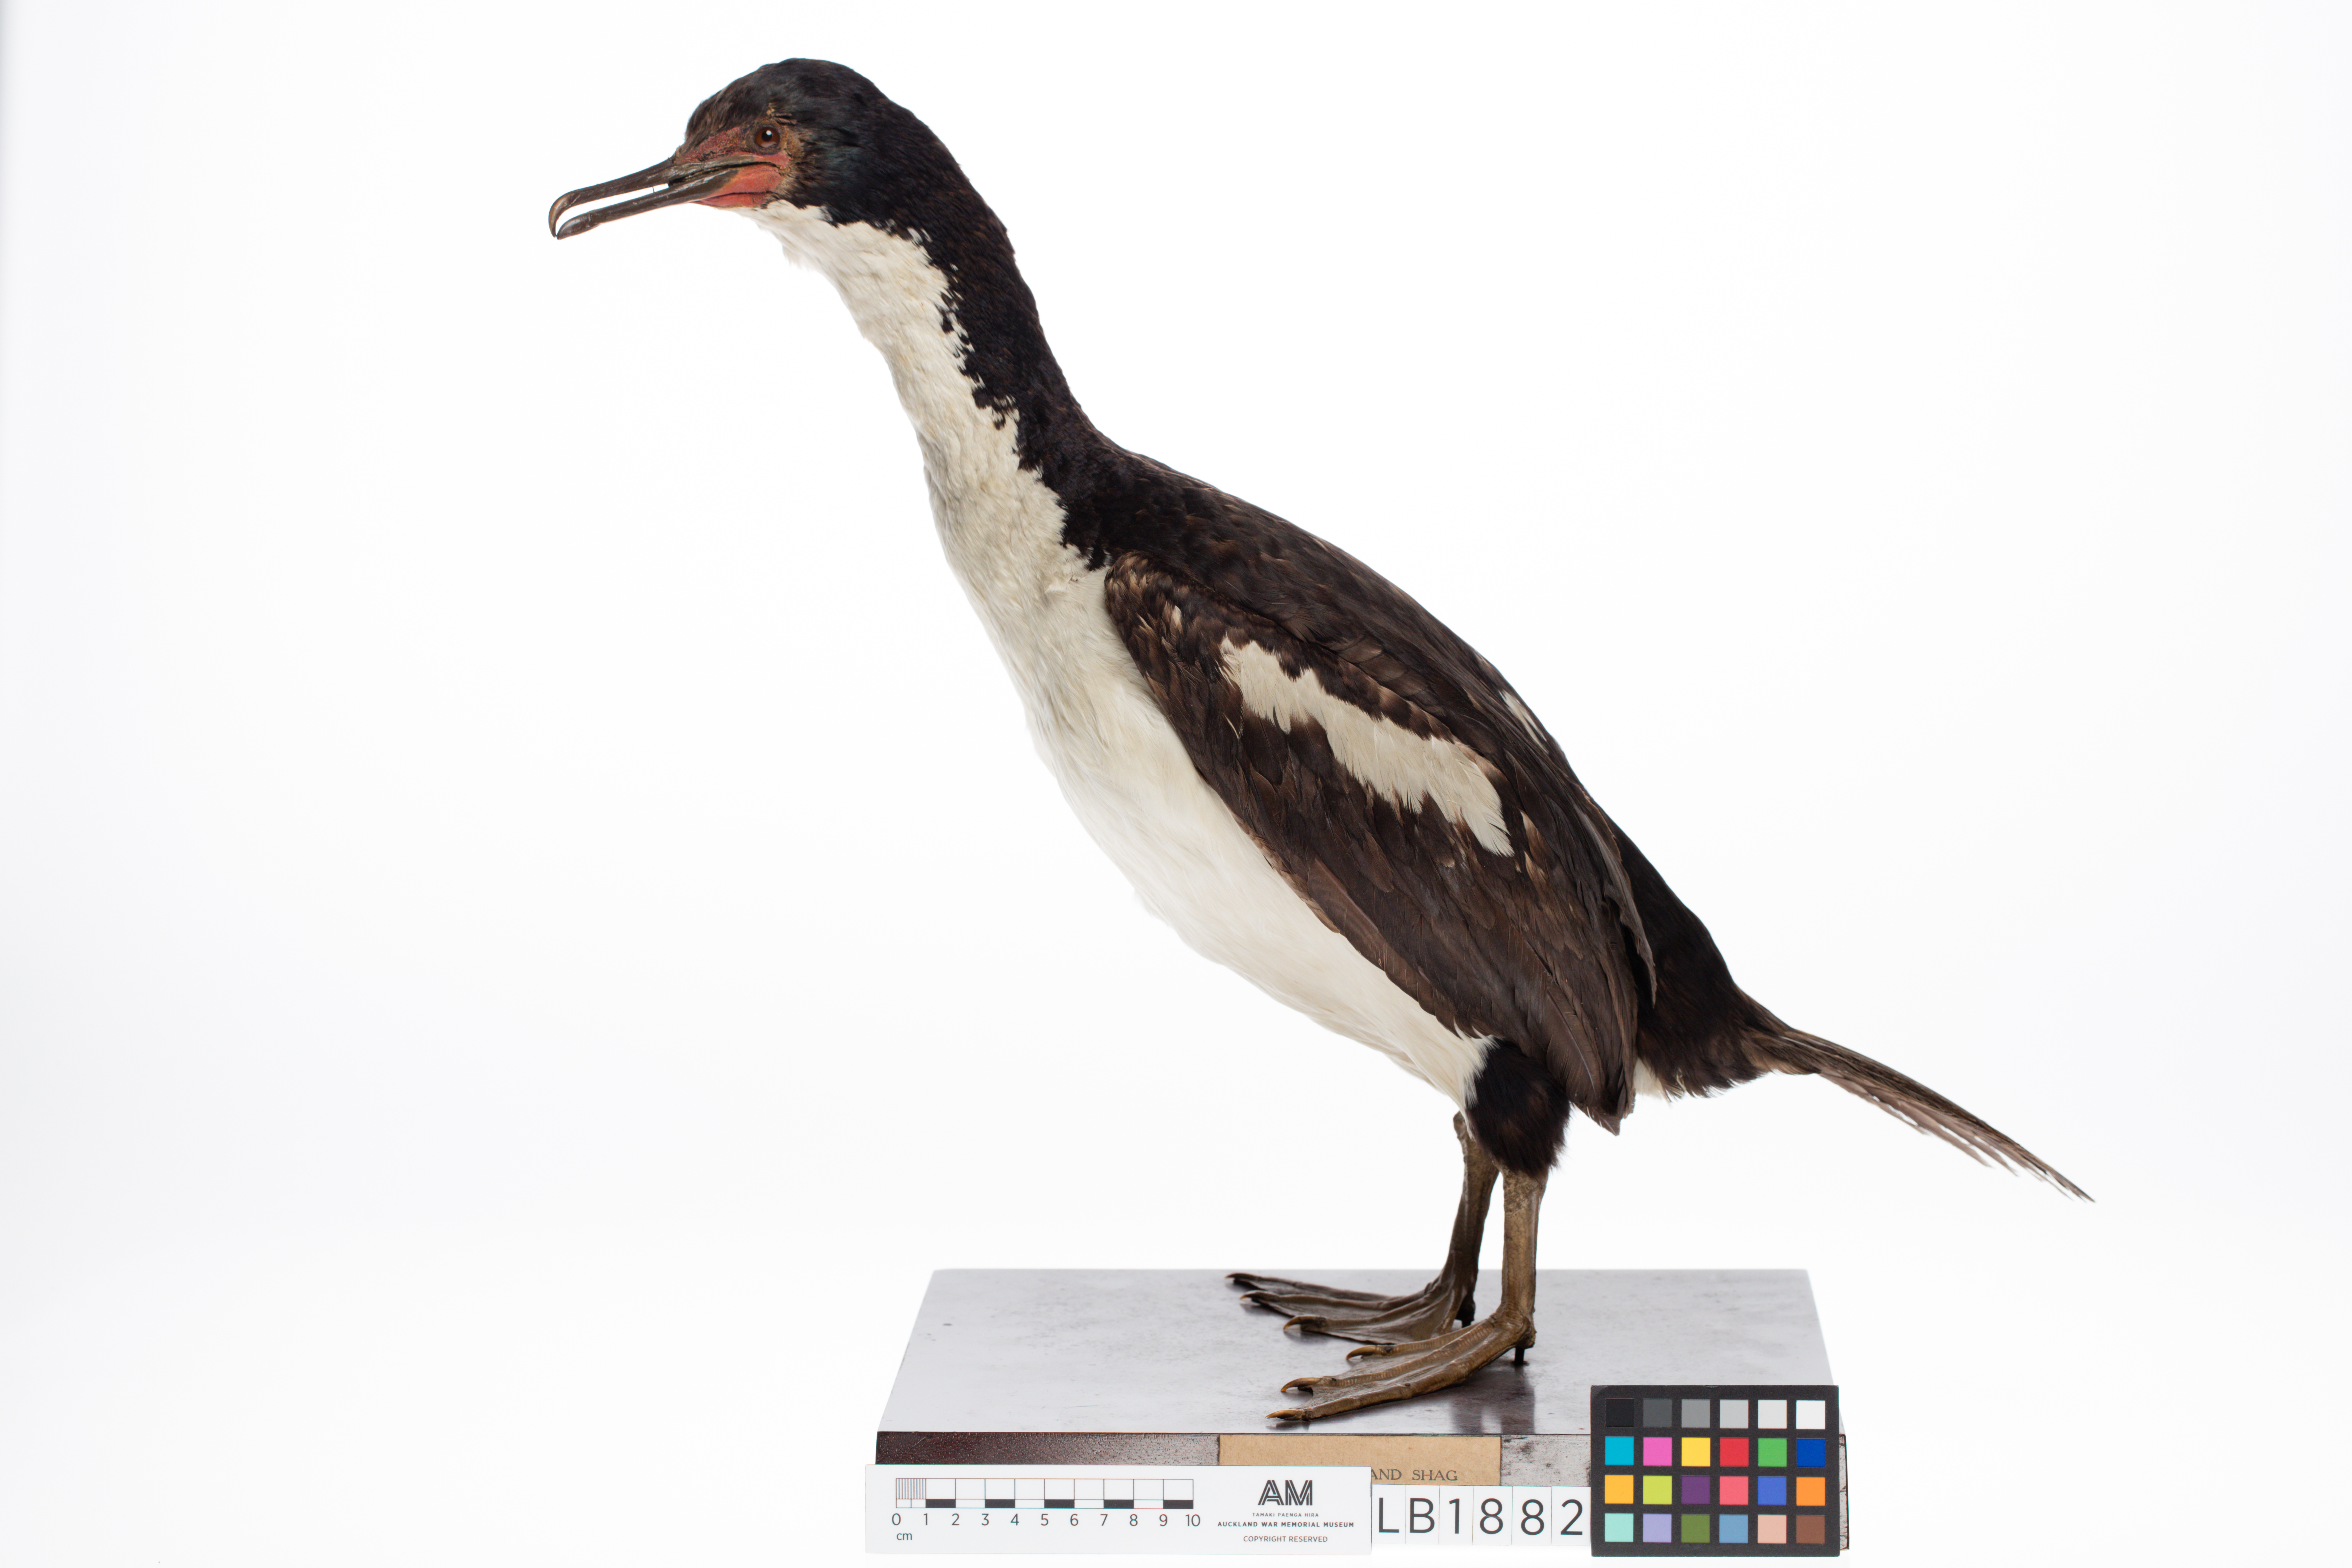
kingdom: Animalia
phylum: Chordata
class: Aves
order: Suliformes
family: Phalacrocoracidae
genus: Leucocarbo
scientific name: Leucocarbo ranfurlyi
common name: Bounty shag
